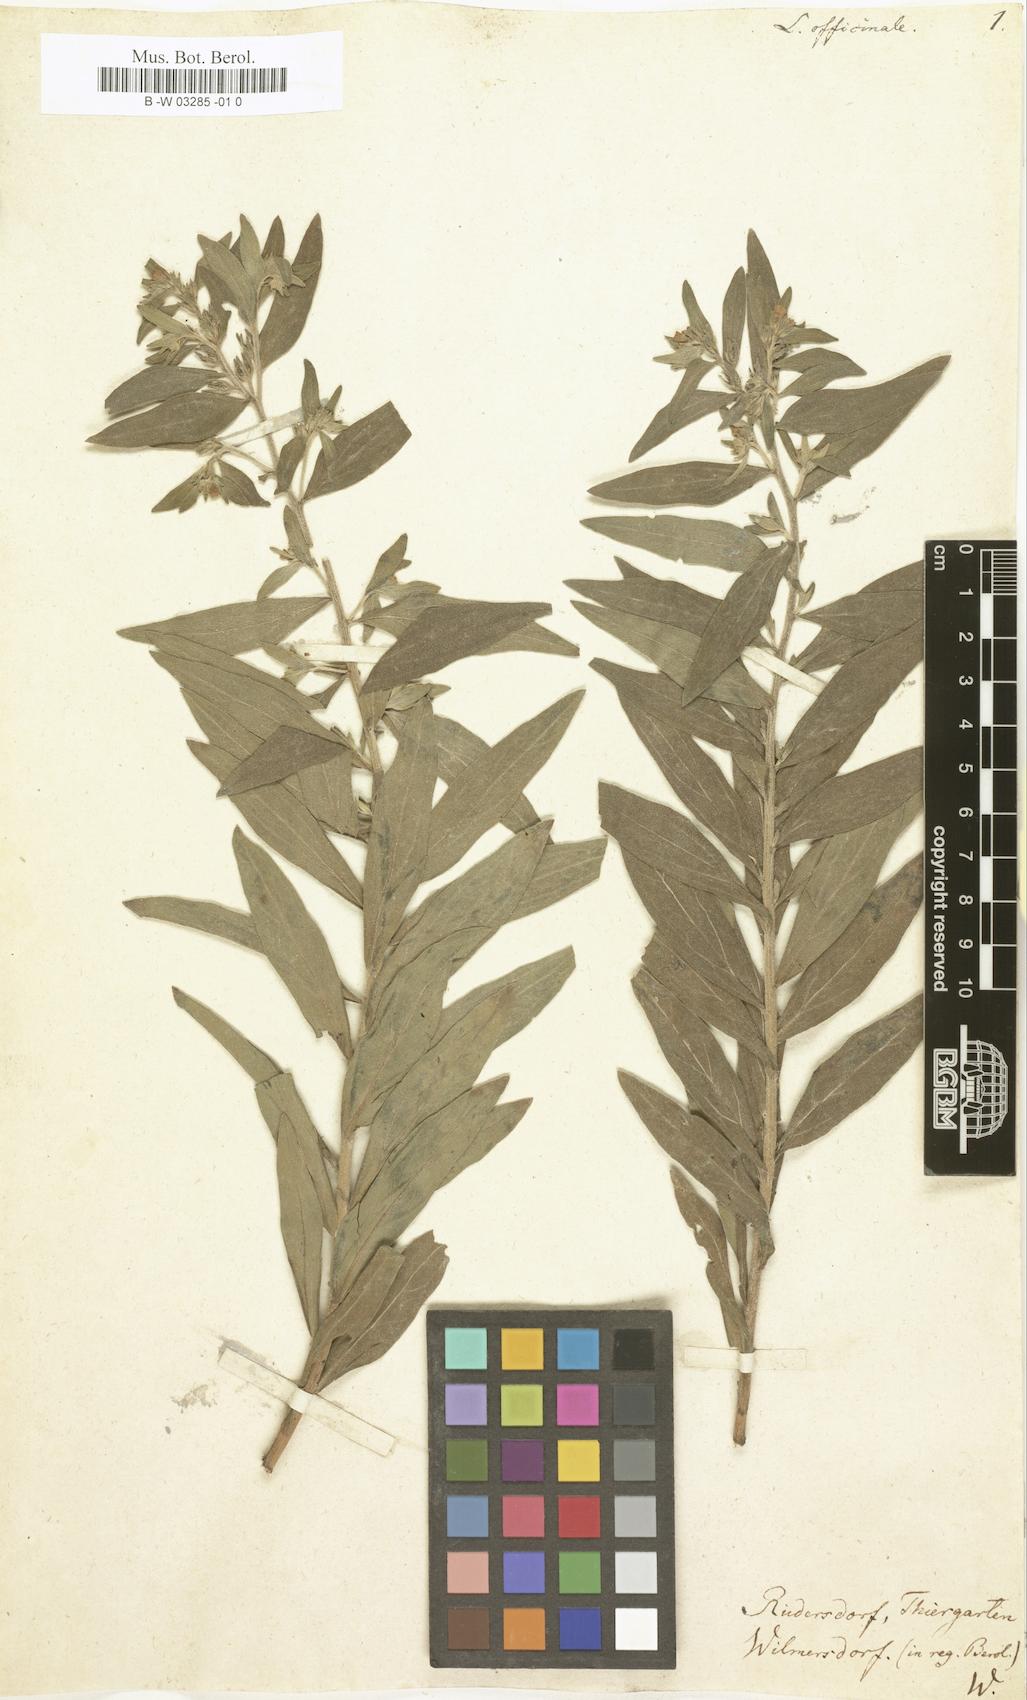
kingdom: Plantae
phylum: Tracheophyta
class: Magnoliopsida
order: Boraginales
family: Boraginaceae
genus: Lithospermum
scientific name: Lithospermum officinale
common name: Common gromwell
